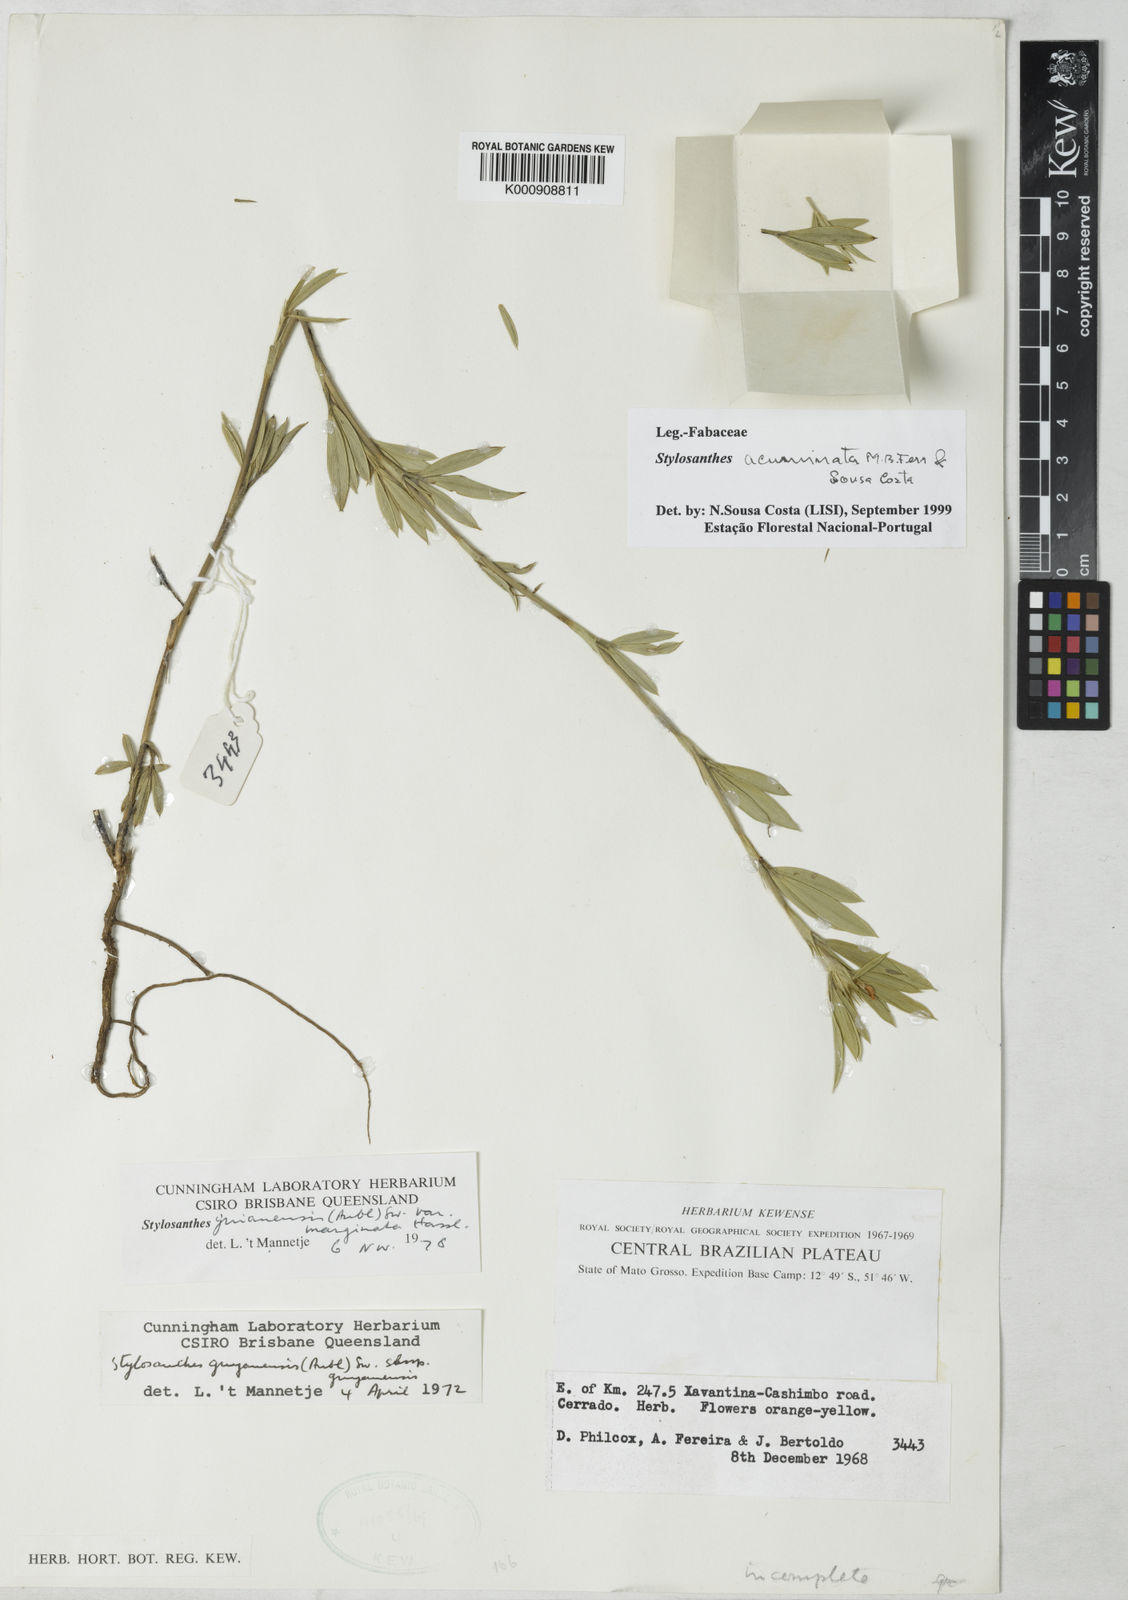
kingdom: Plantae
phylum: Tracheophyta
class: Magnoliopsida
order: Fabales
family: Fabaceae
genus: Stylosanthes
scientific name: Stylosanthes guianensis
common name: Pencil flower
